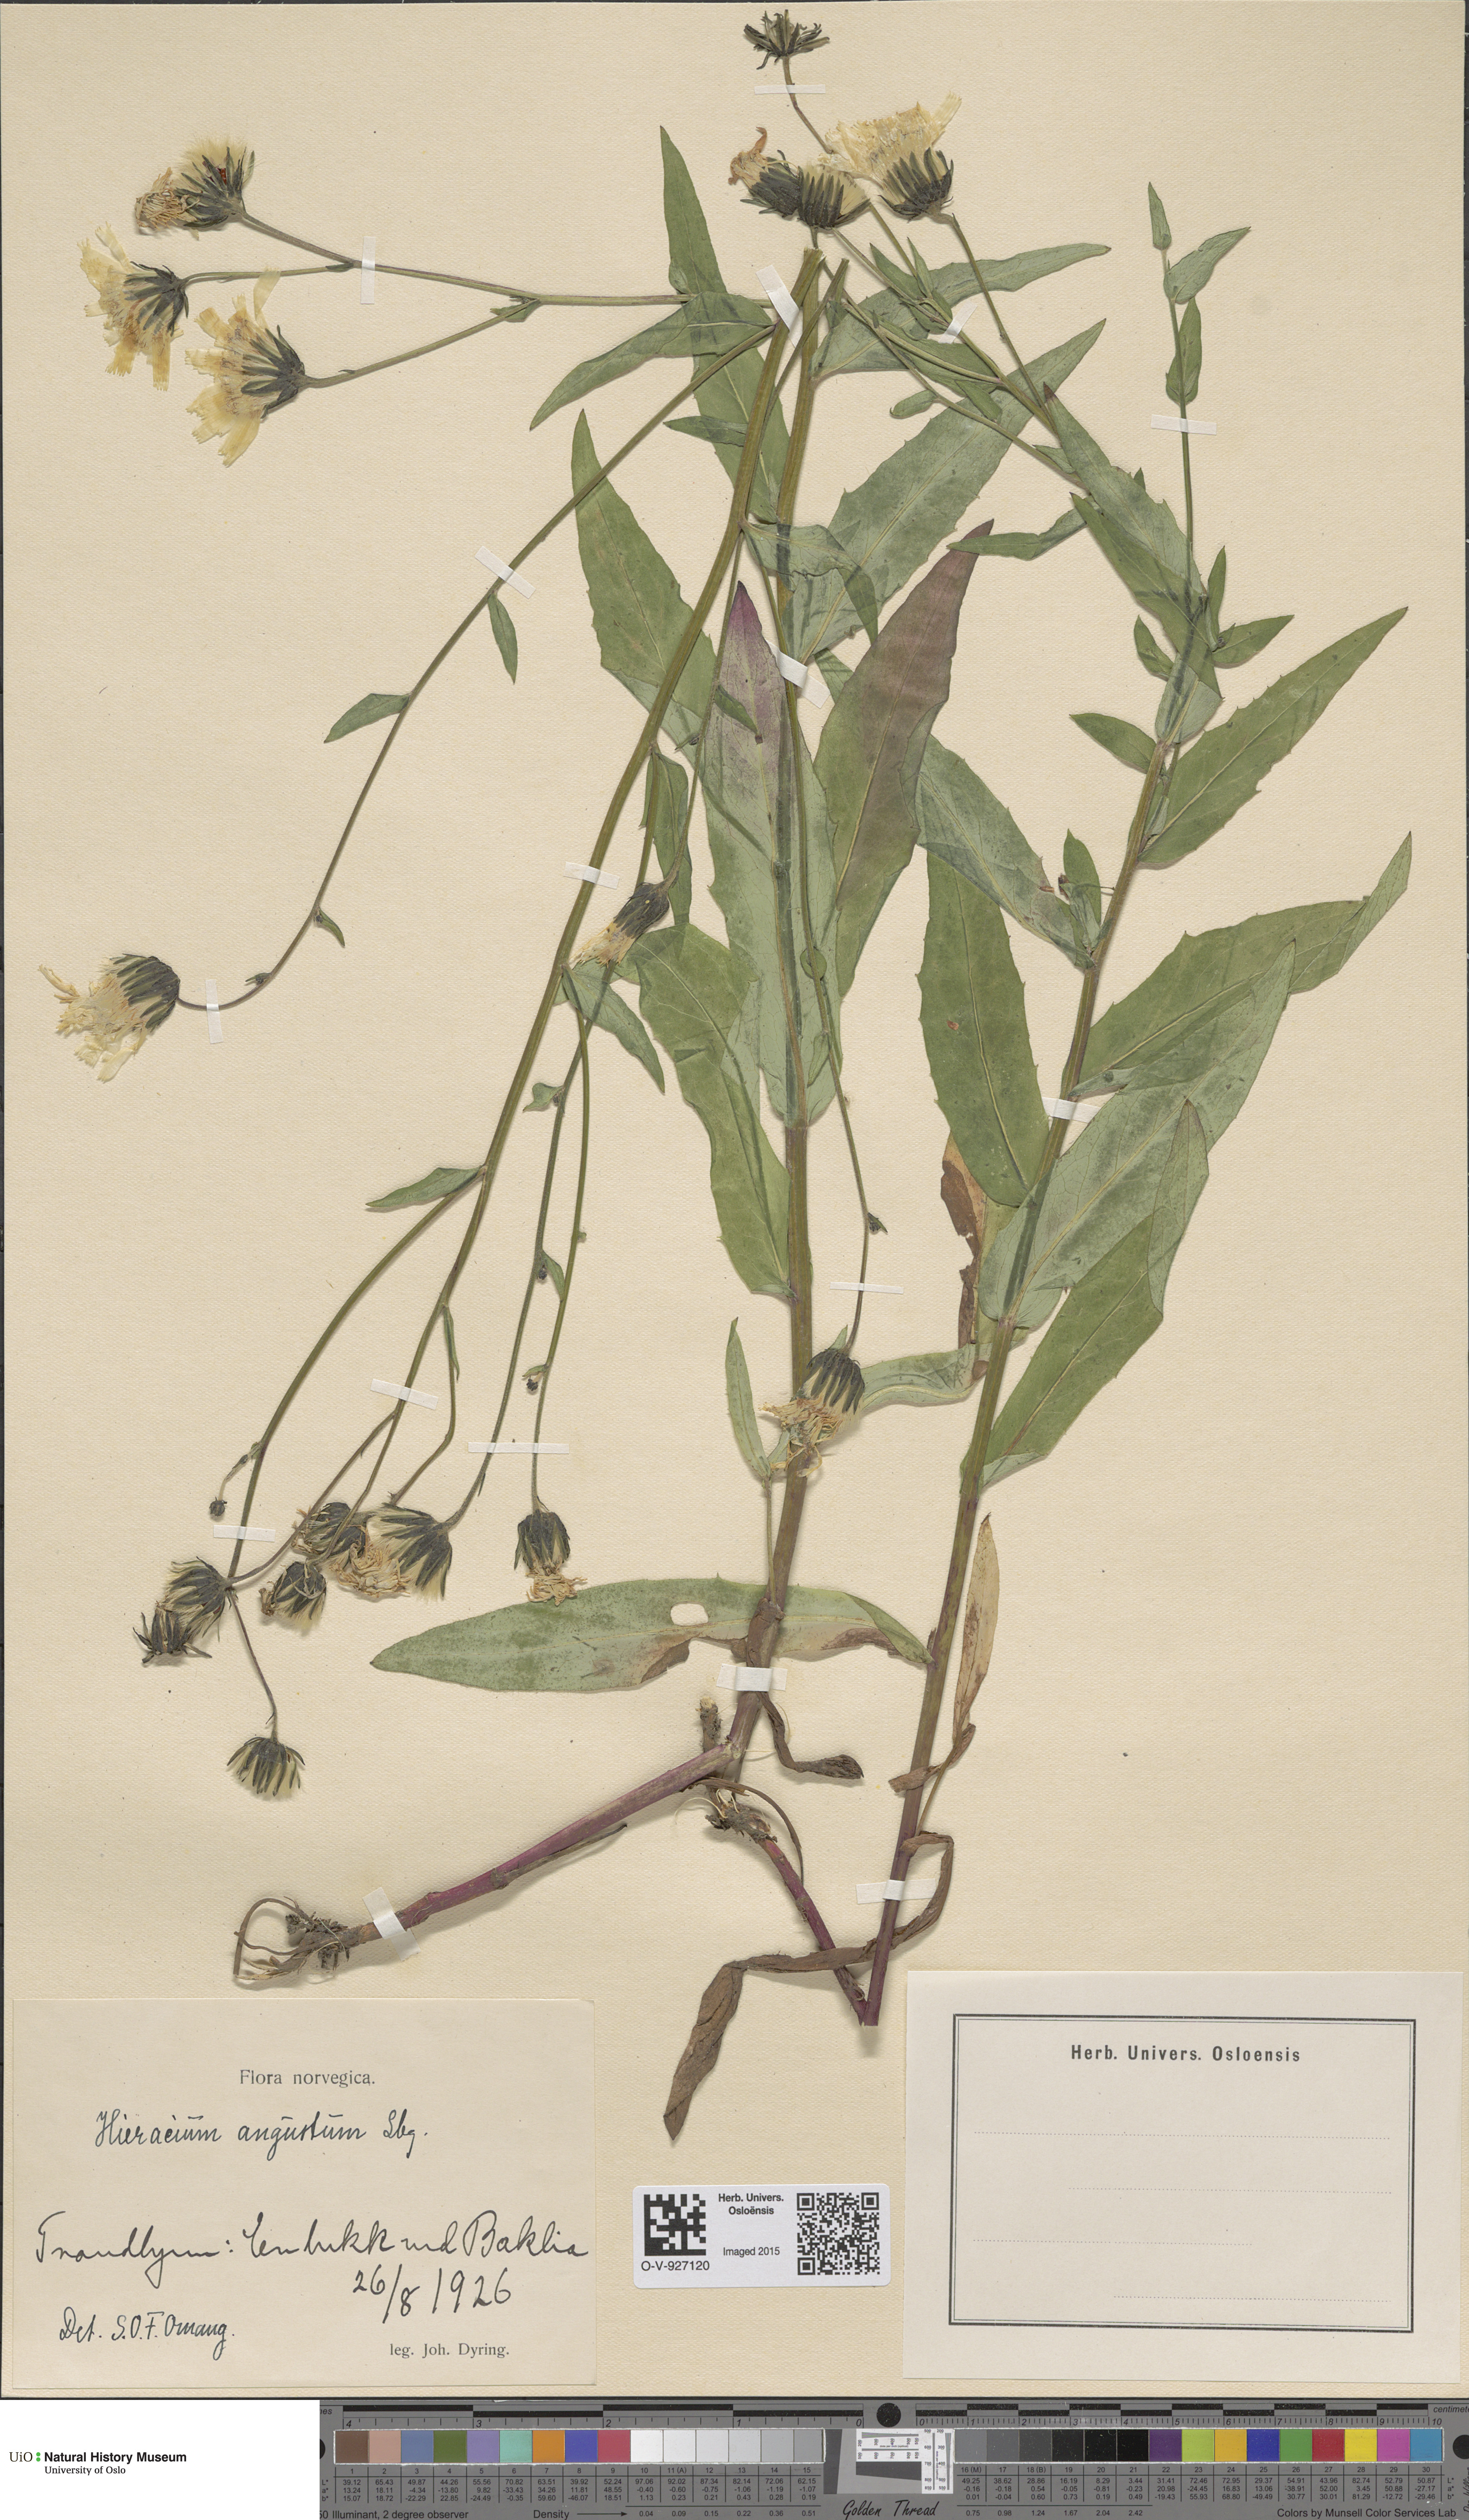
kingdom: Plantae
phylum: Tracheophyta
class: Magnoliopsida
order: Asterales
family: Asteraceae
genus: Hieracium
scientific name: Hieracium angustum
